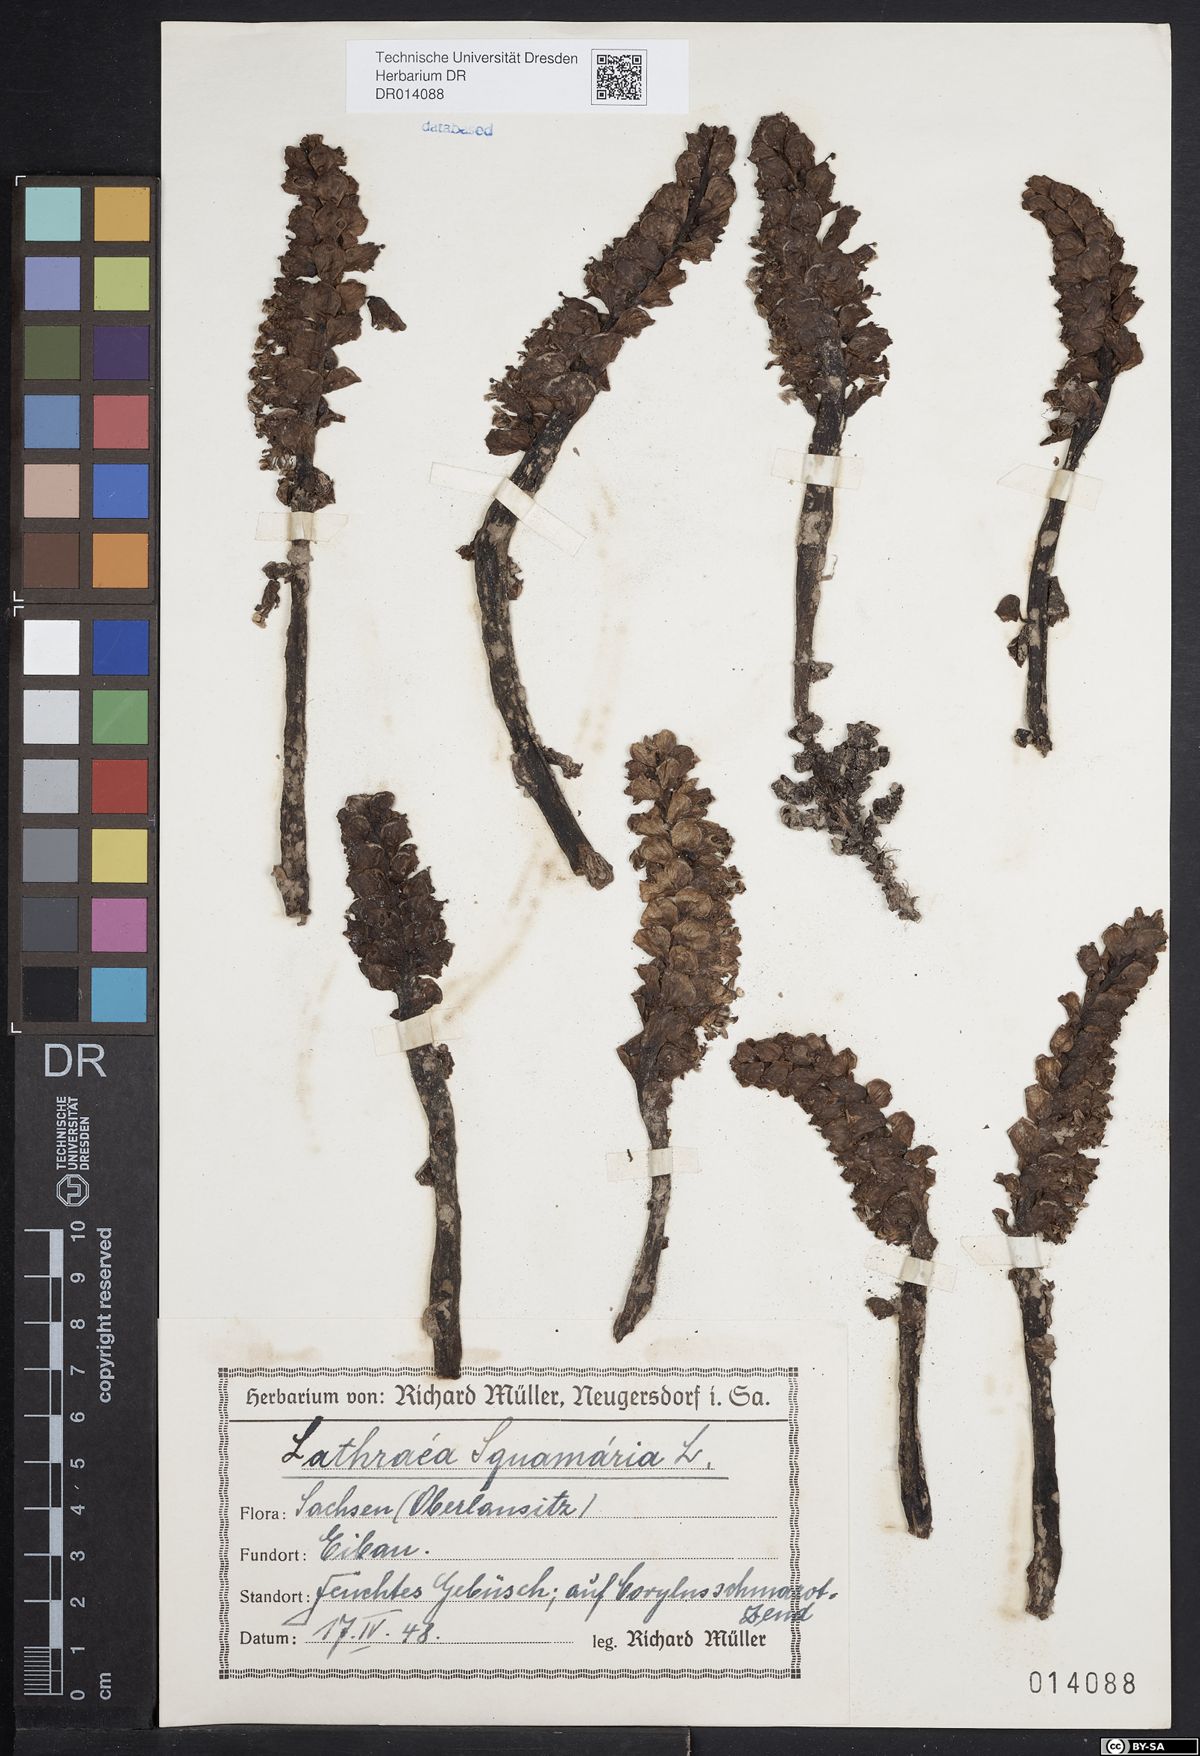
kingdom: Plantae
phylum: Tracheophyta
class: Magnoliopsida
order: Lamiales
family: Orobanchaceae
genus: Lathraea
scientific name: Lathraea squamaria
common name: Toothwort
